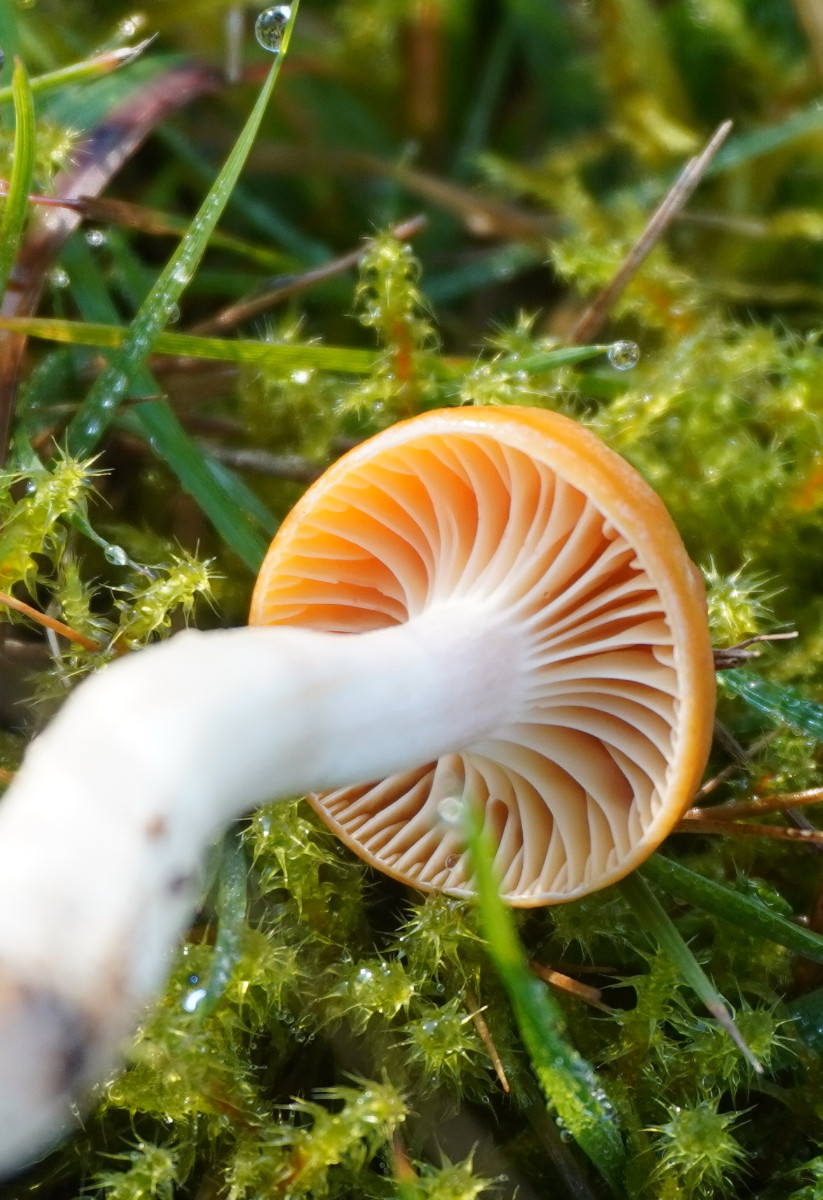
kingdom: Fungi
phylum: Basidiomycota
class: Agaricomycetes
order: Agaricales
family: Hygrophoraceae
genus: Cuphophyllus
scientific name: Cuphophyllus pratensis
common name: eng-vokshat
